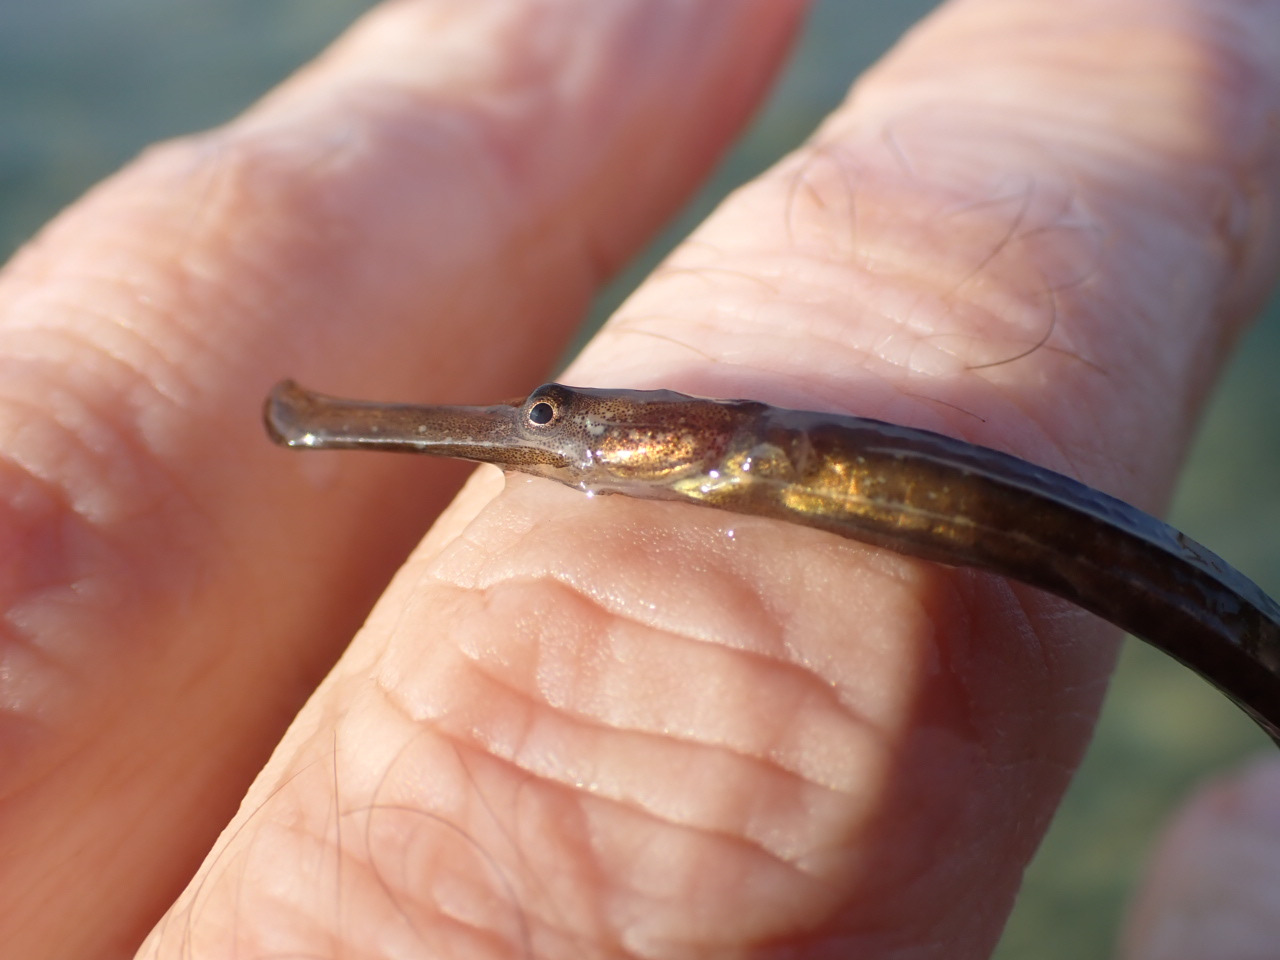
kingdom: Animalia
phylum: Chordata
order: Syngnathiformes
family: Syngnathidae
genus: Syngnathus
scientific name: Syngnathus typhle
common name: Almindelig tangnål
